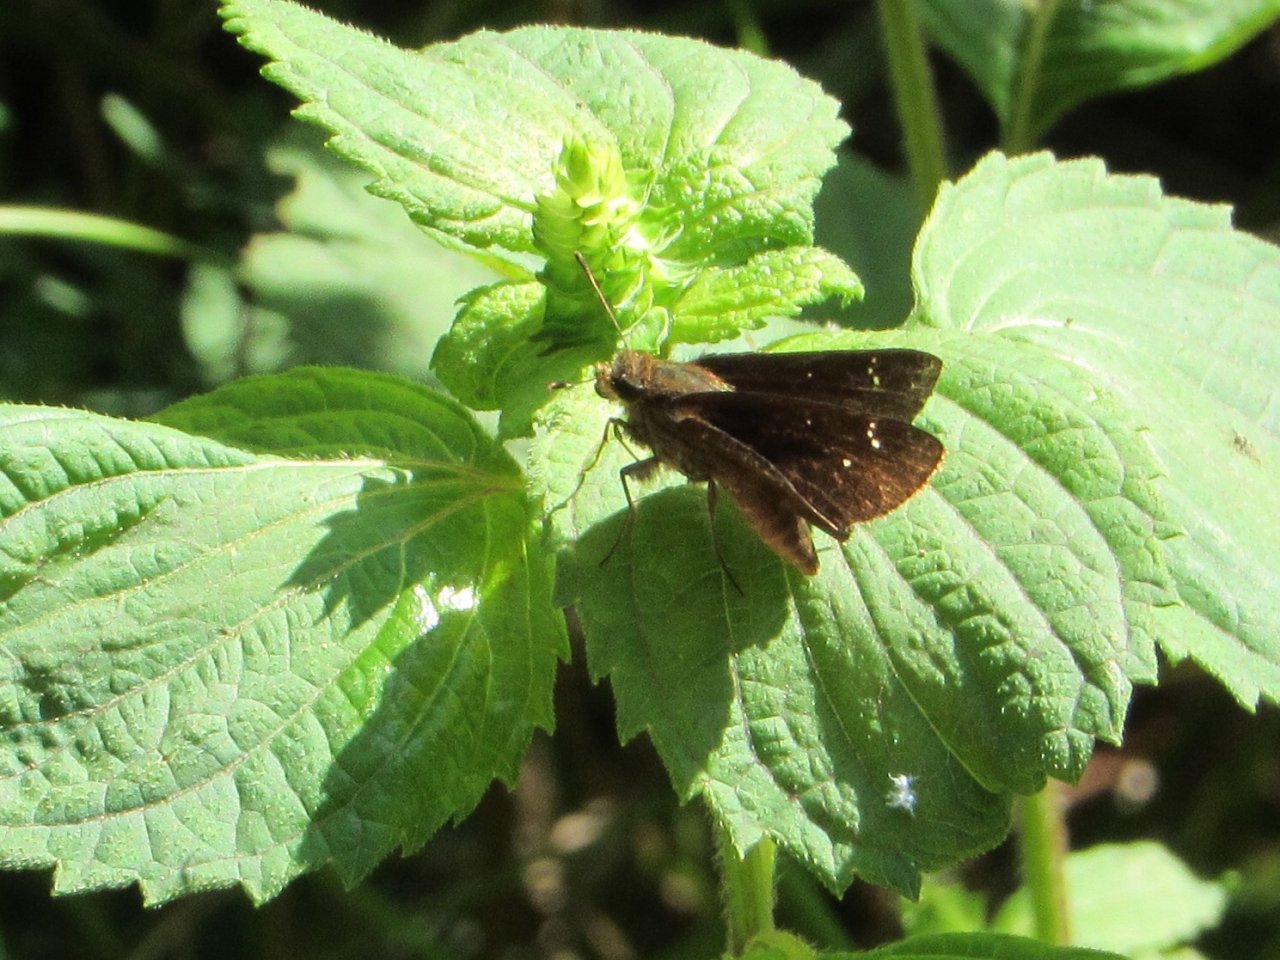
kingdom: Animalia
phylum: Arthropoda
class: Insecta
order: Lepidoptera
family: Hesperiidae
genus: Lerema
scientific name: Lerema accius
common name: Clouded Skipper
